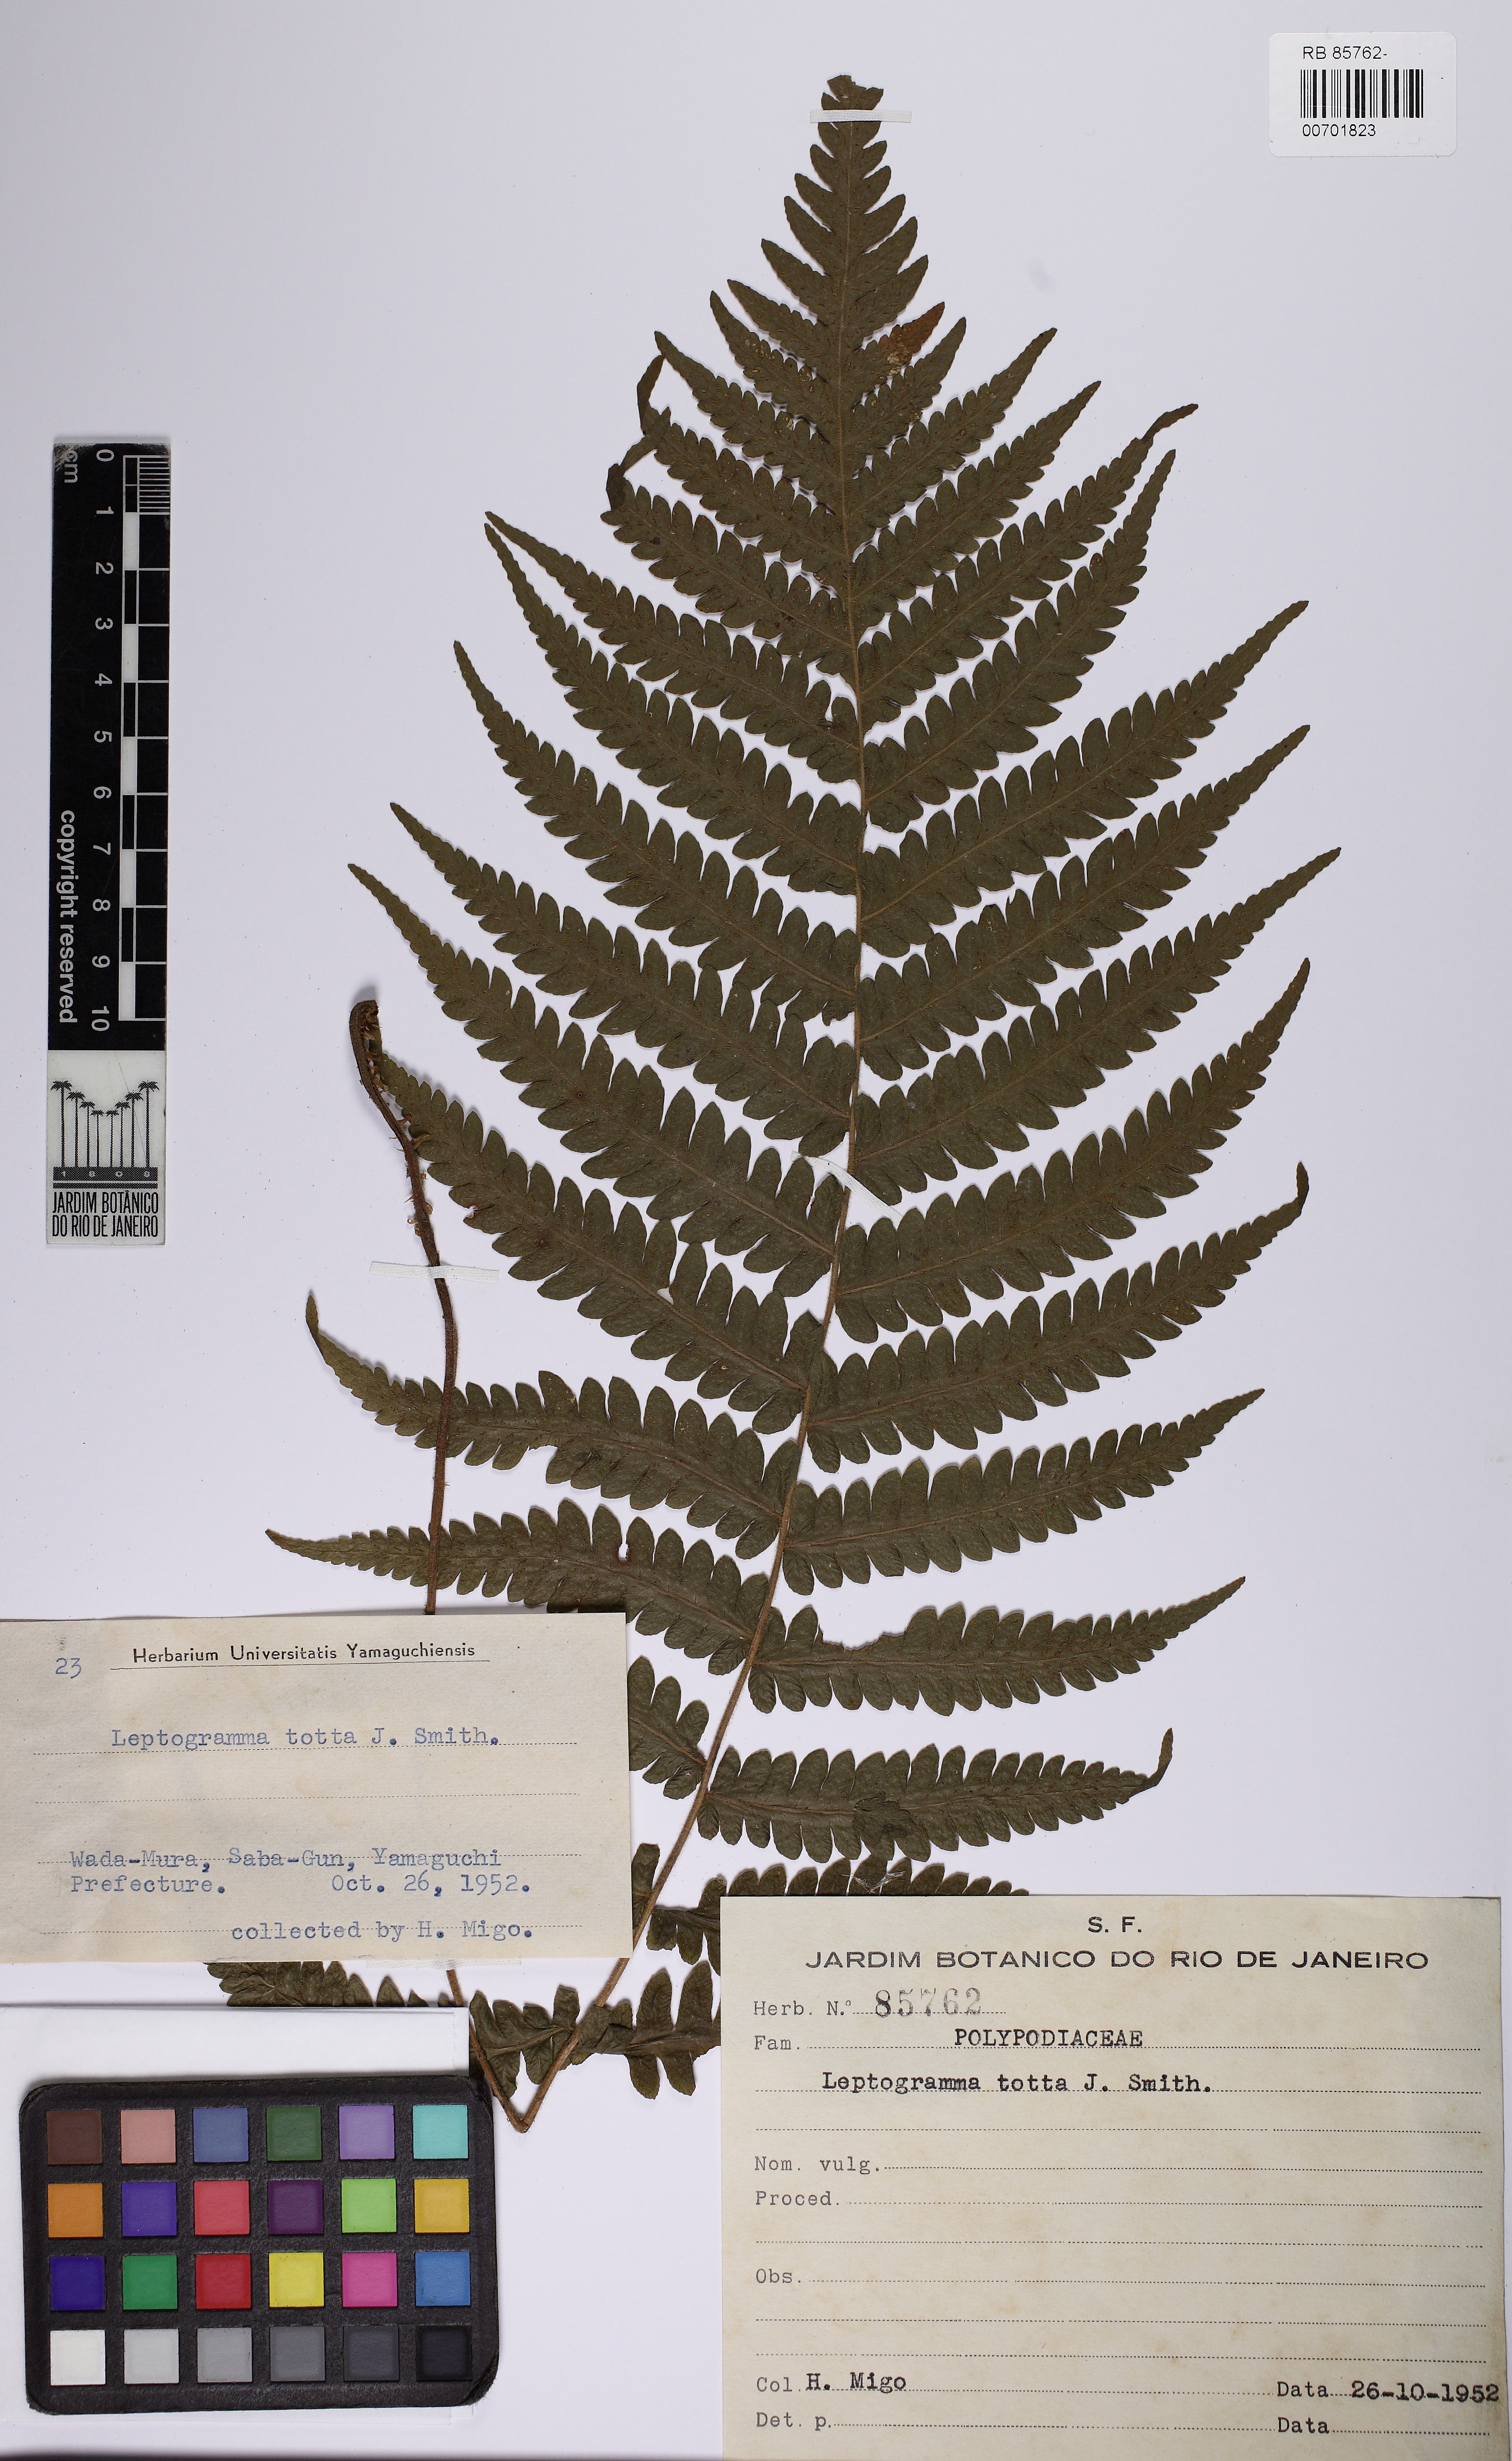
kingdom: Plantae
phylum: Tracheophyta
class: Polypodiopsida
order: Polypodiales
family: Thelypteridaceae
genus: Leptogramma
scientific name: Leptogramma totta
